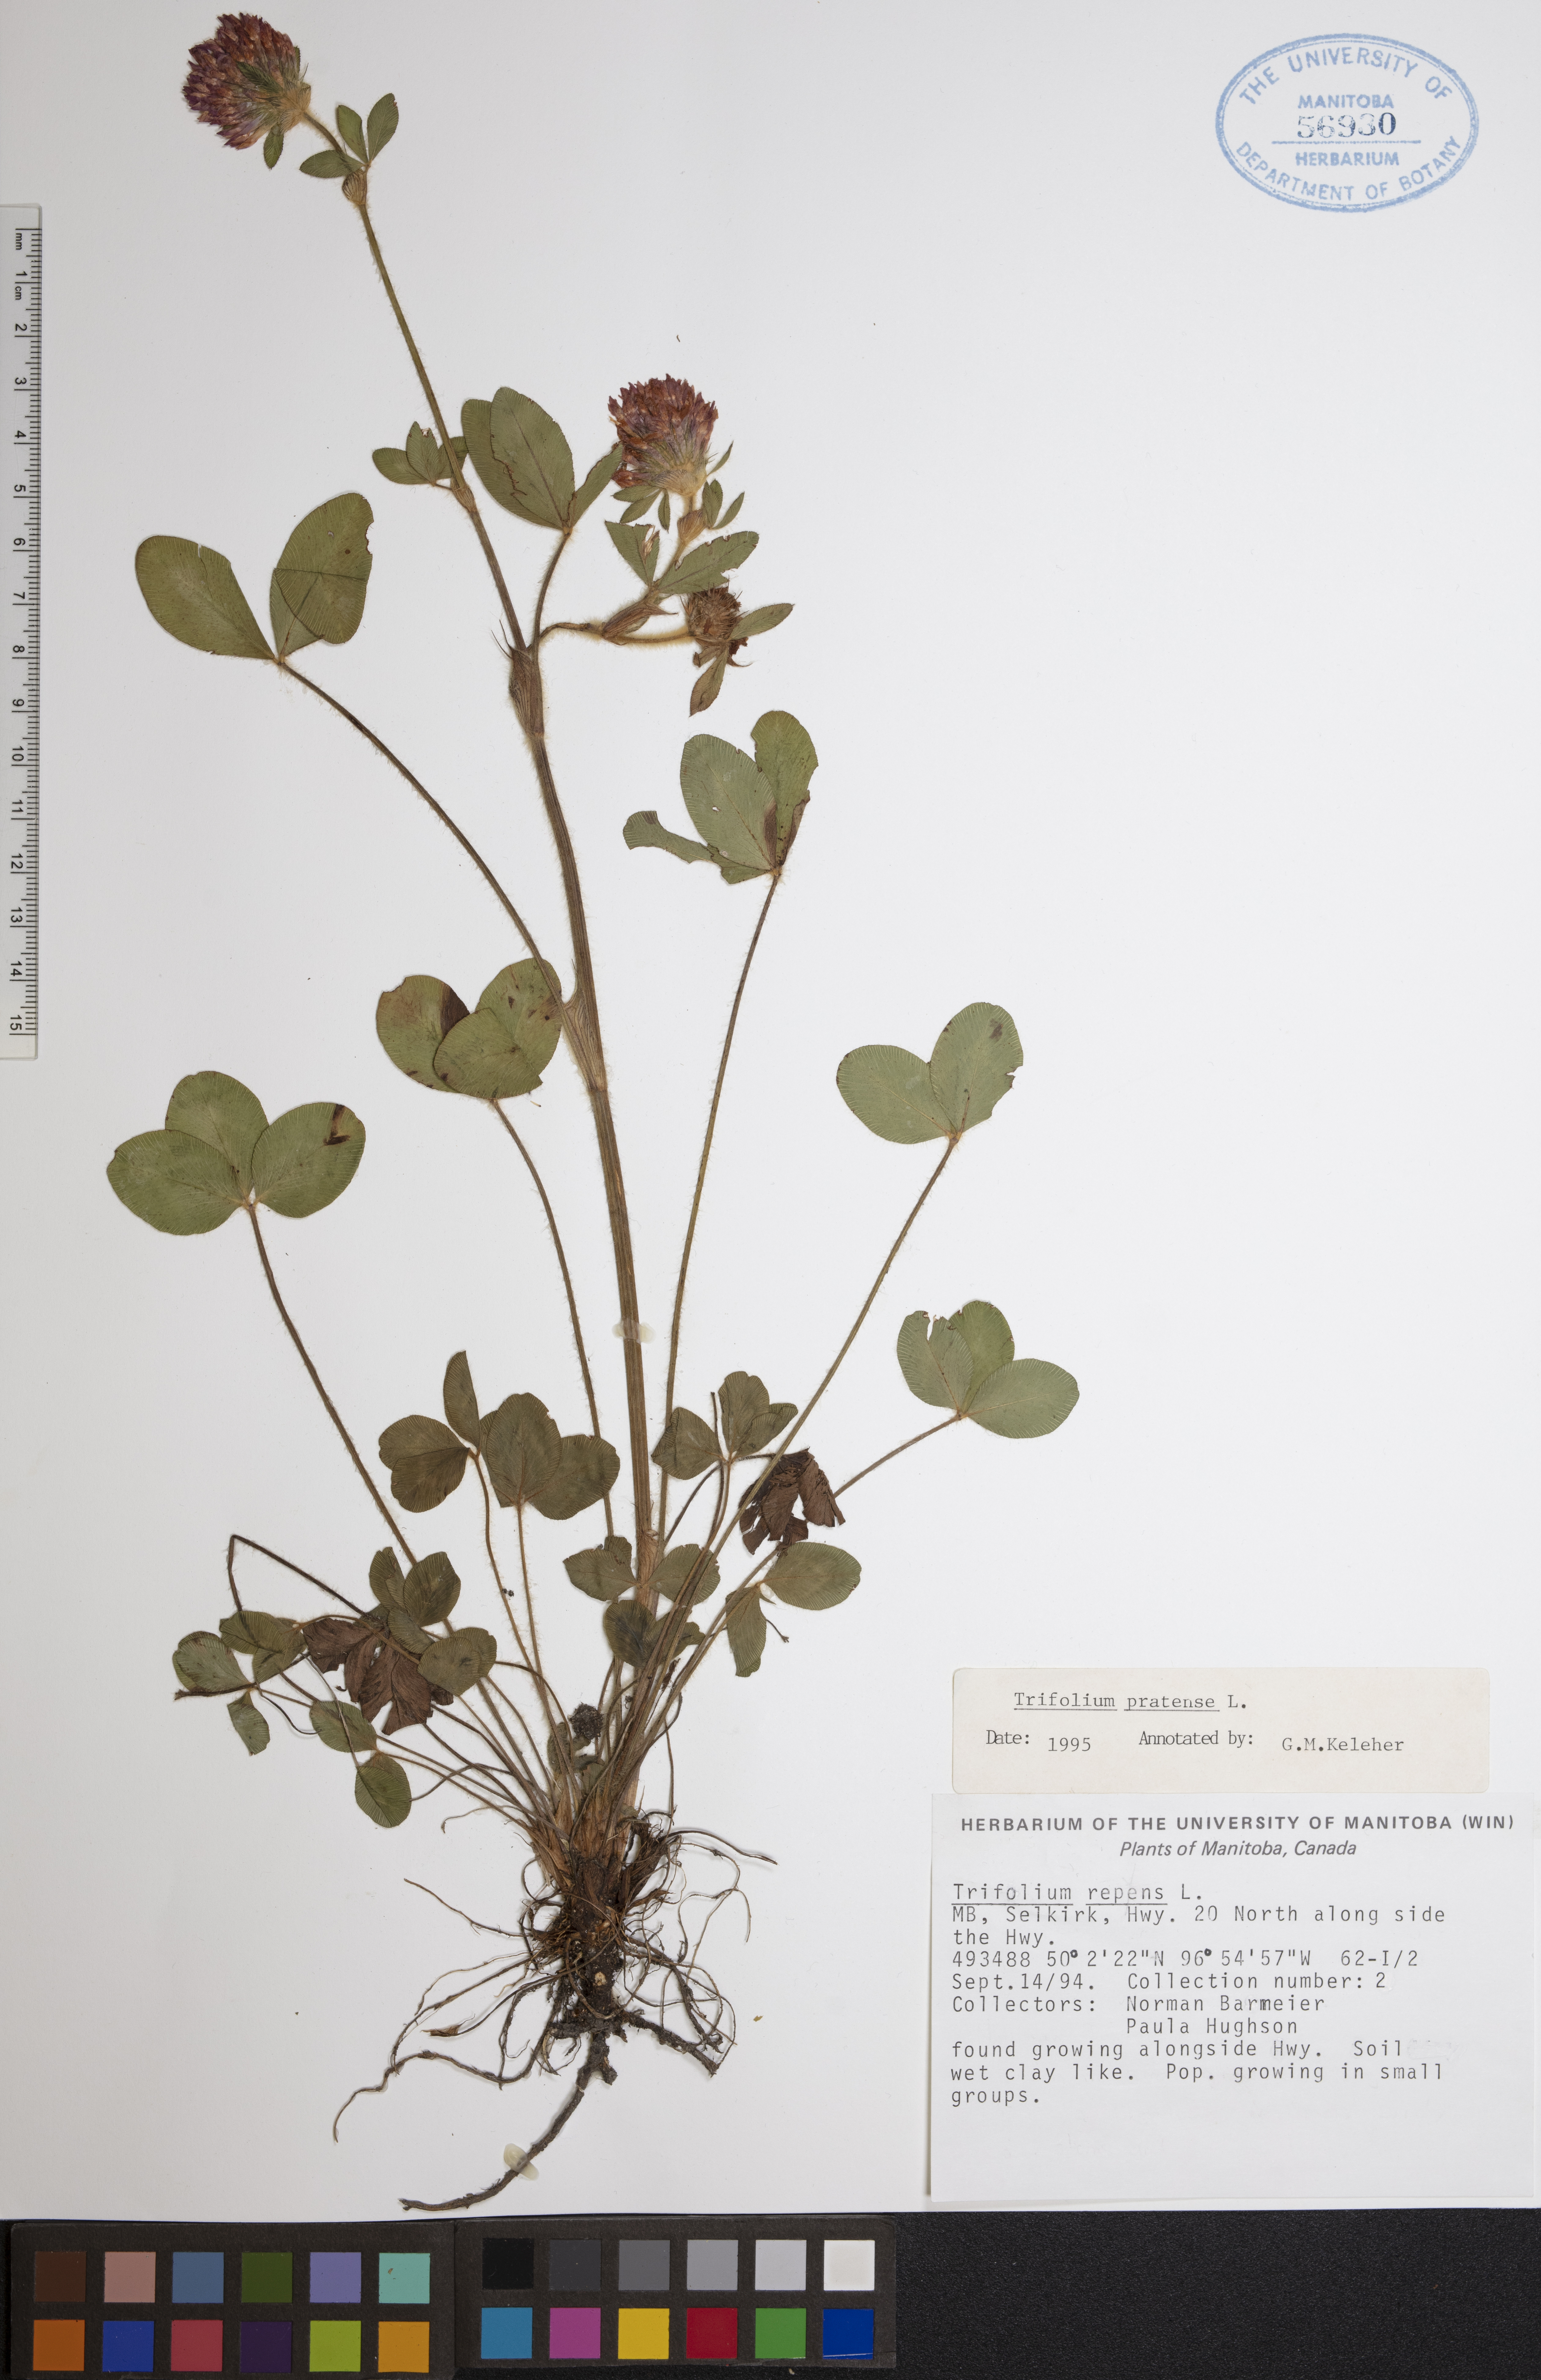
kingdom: Plantae
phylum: Tracheophyta
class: Magnoliopsida
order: Fabales
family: Fabaceae
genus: Trifolium
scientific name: Trifolium pratense
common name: Red clover
